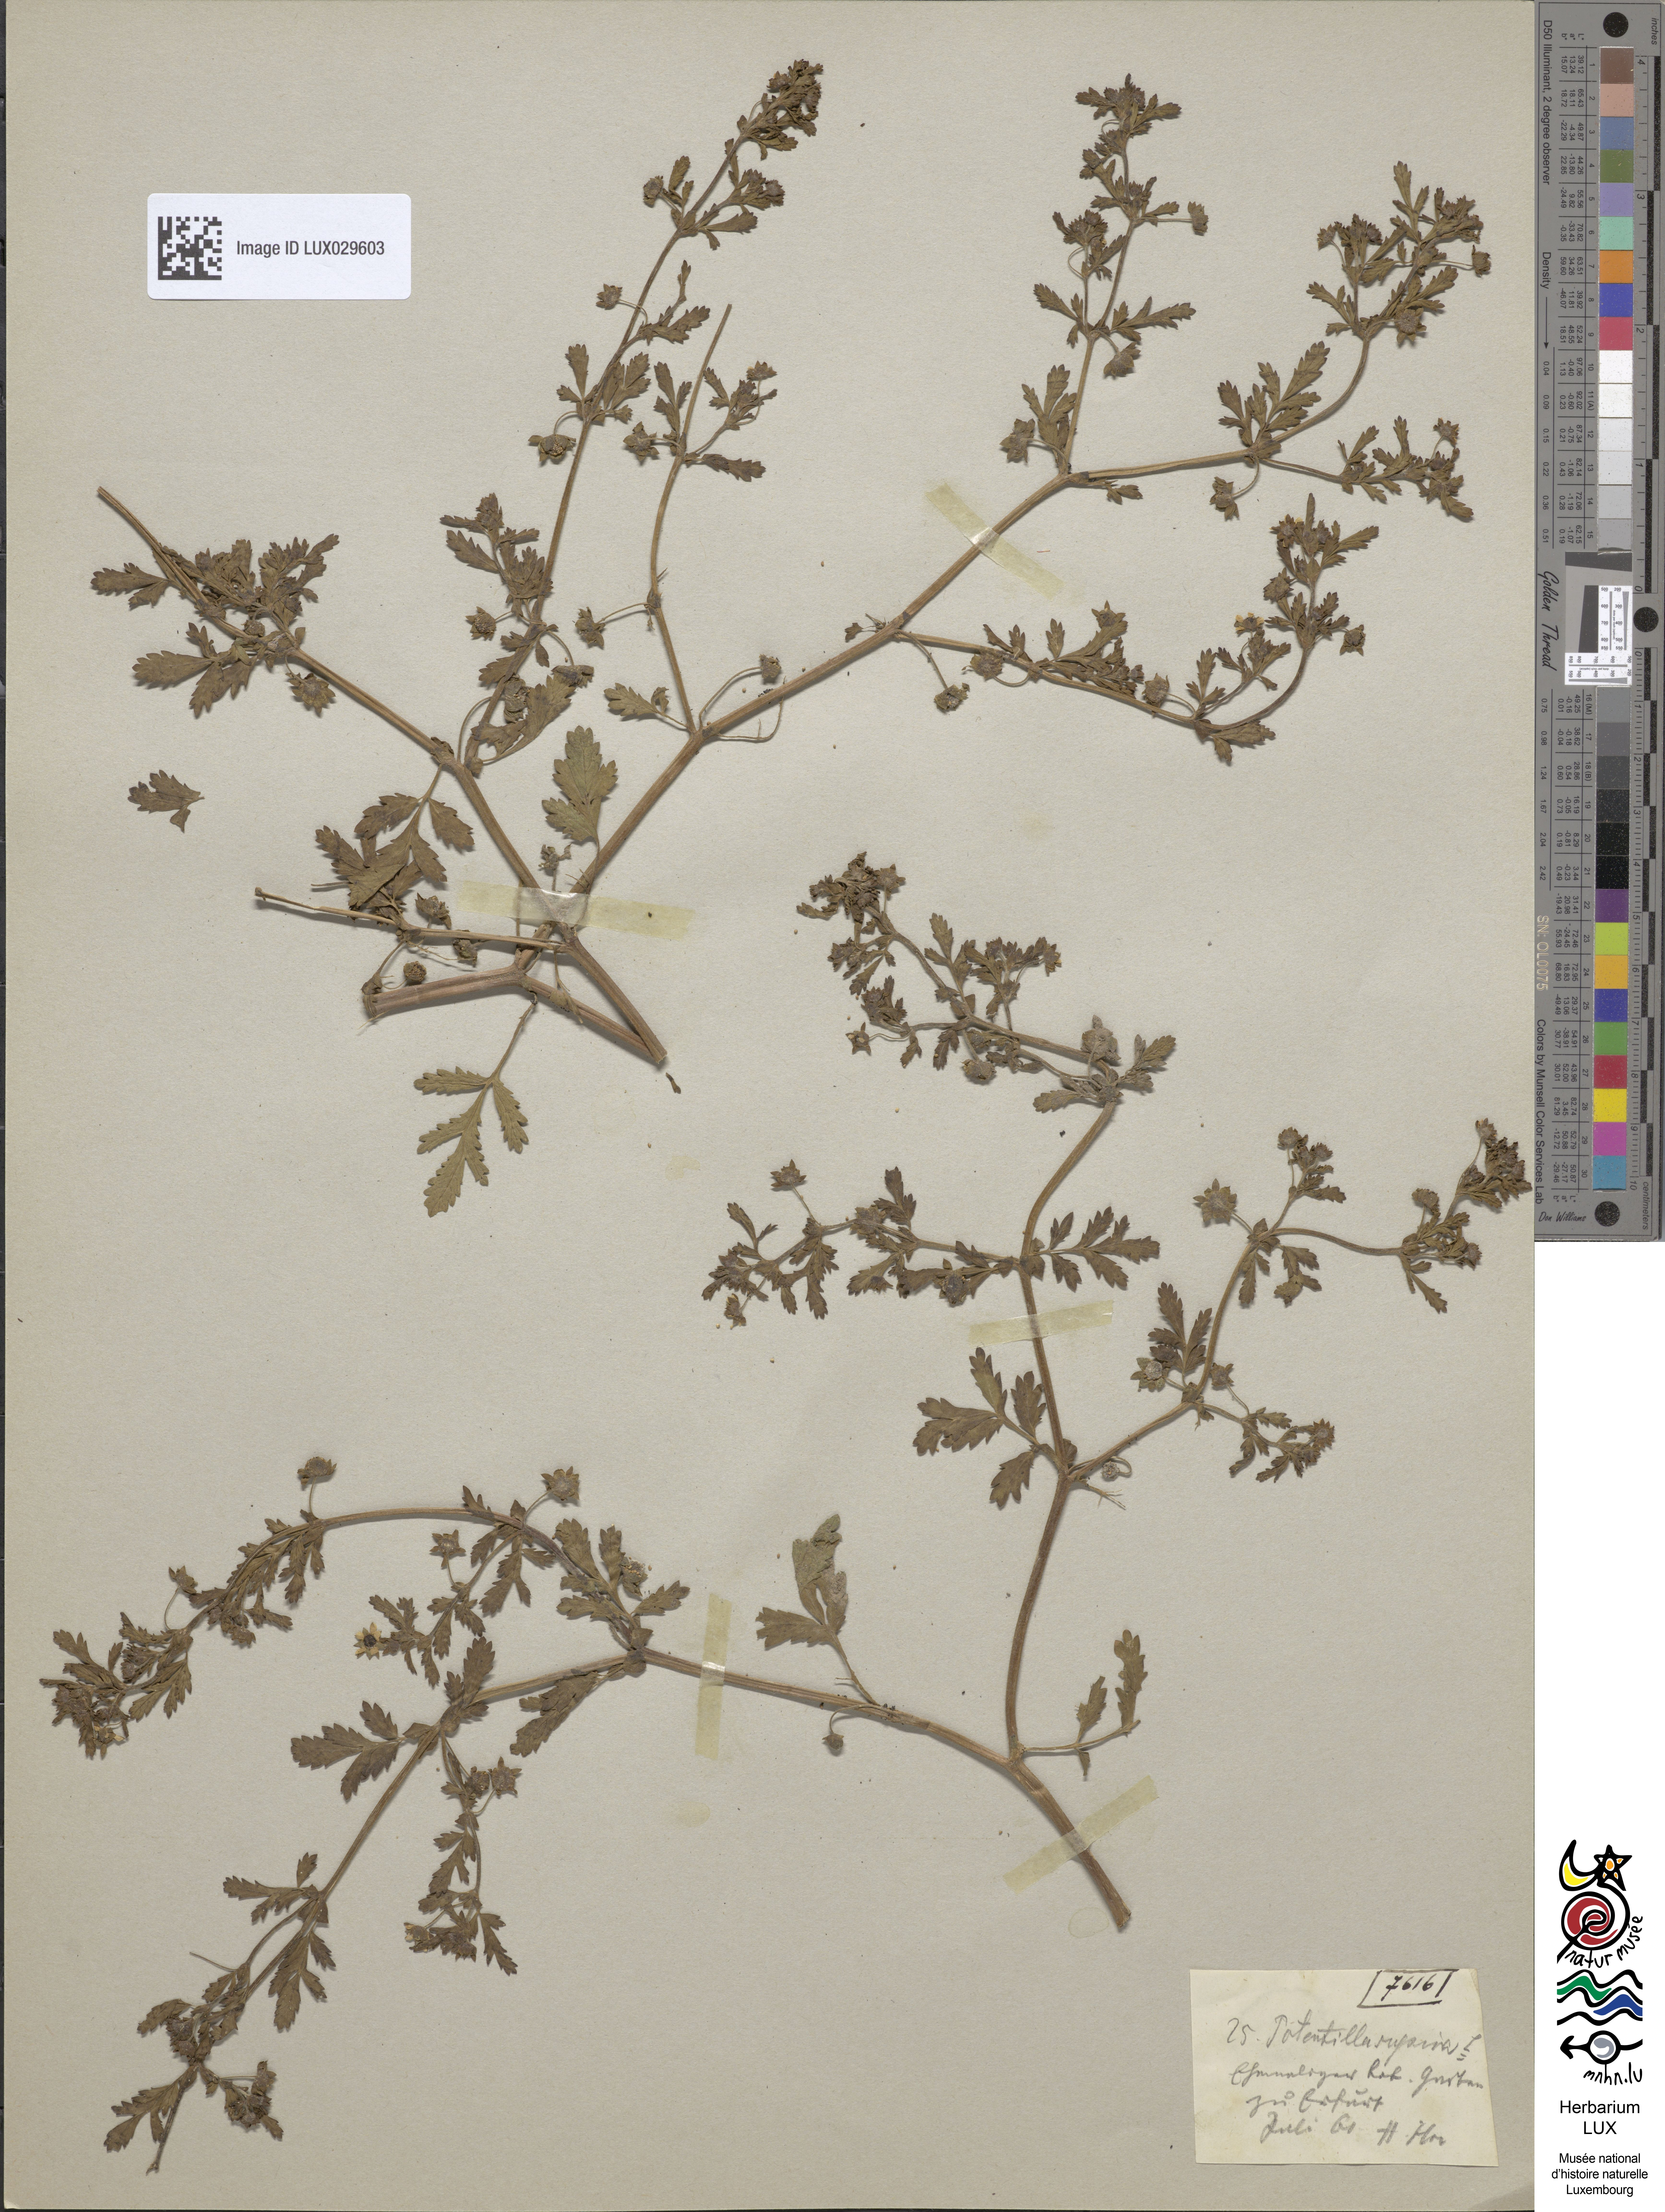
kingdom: Plantae
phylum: Tracheophyta
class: Magnoliopsida
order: Rosales
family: Rosaceae
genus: Potentilla
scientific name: Potentilla supina
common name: Prostrate cinquefoil
